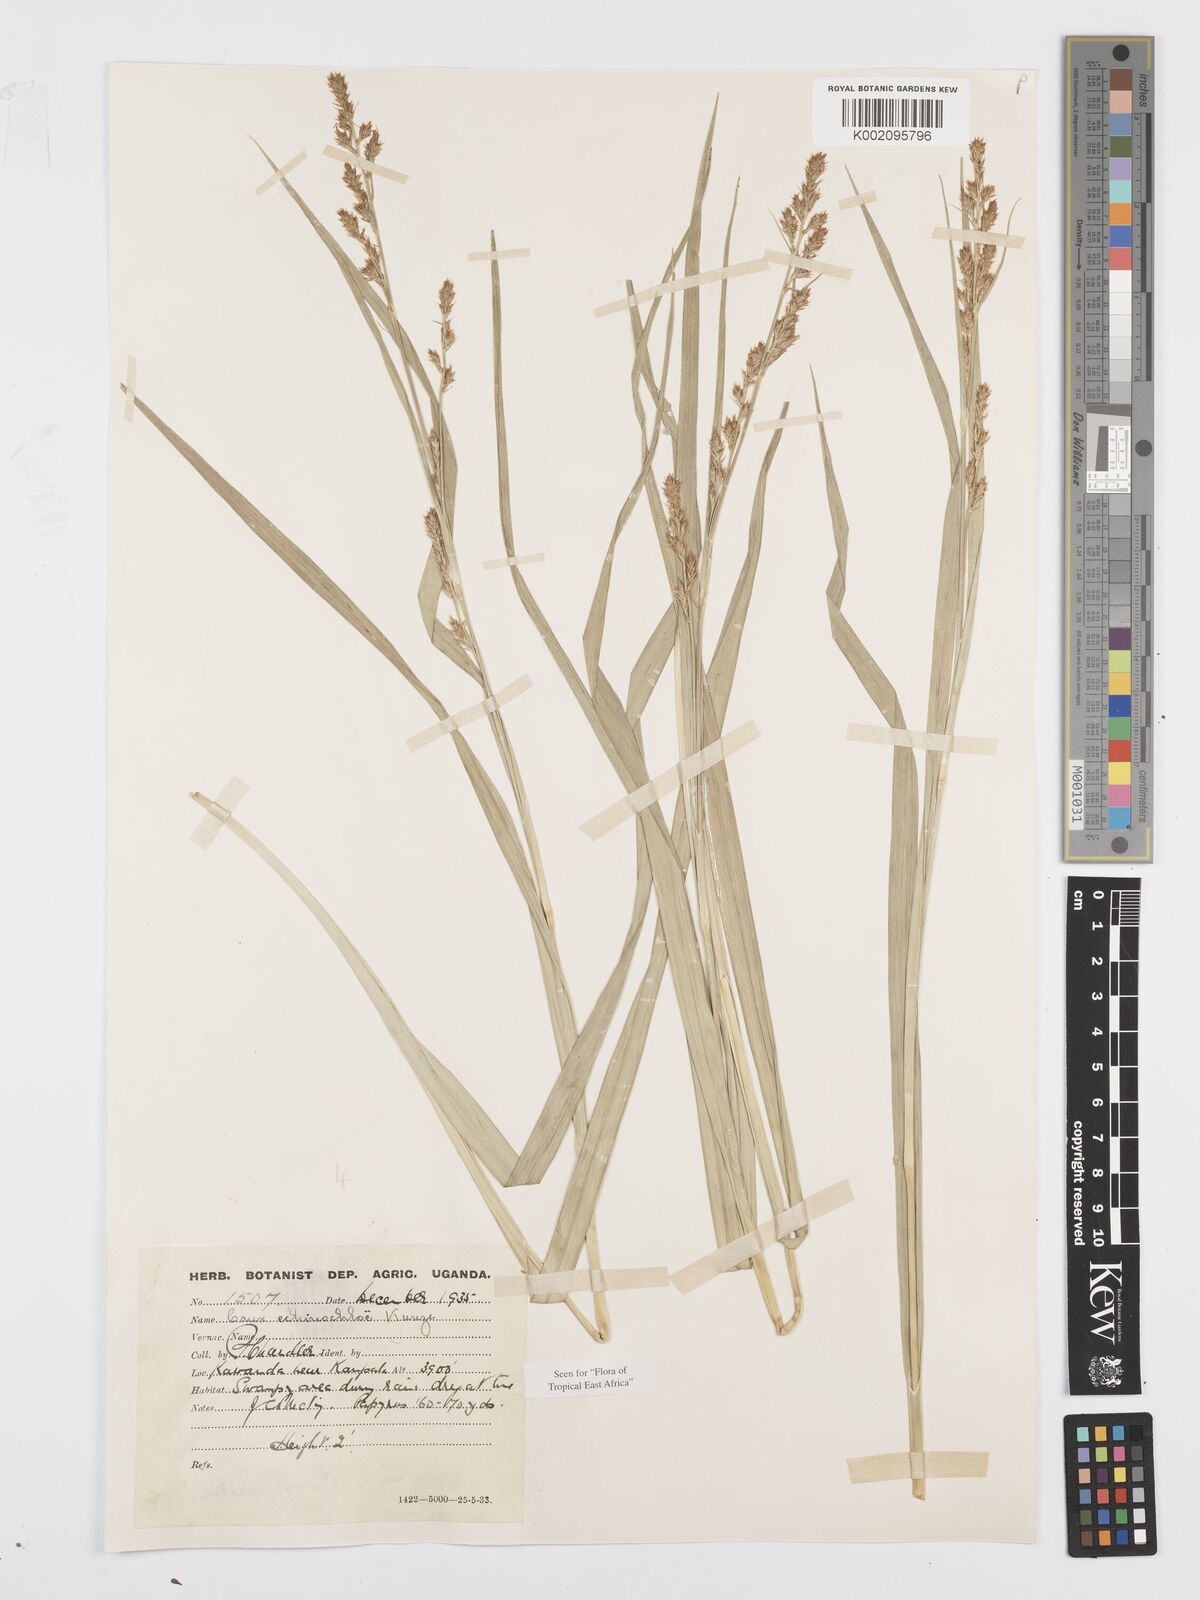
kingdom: Plantae
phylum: Tracheophyta
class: Liliopsida
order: Poales
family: Cyperaceae
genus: Carex
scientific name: Carex echinochloe
